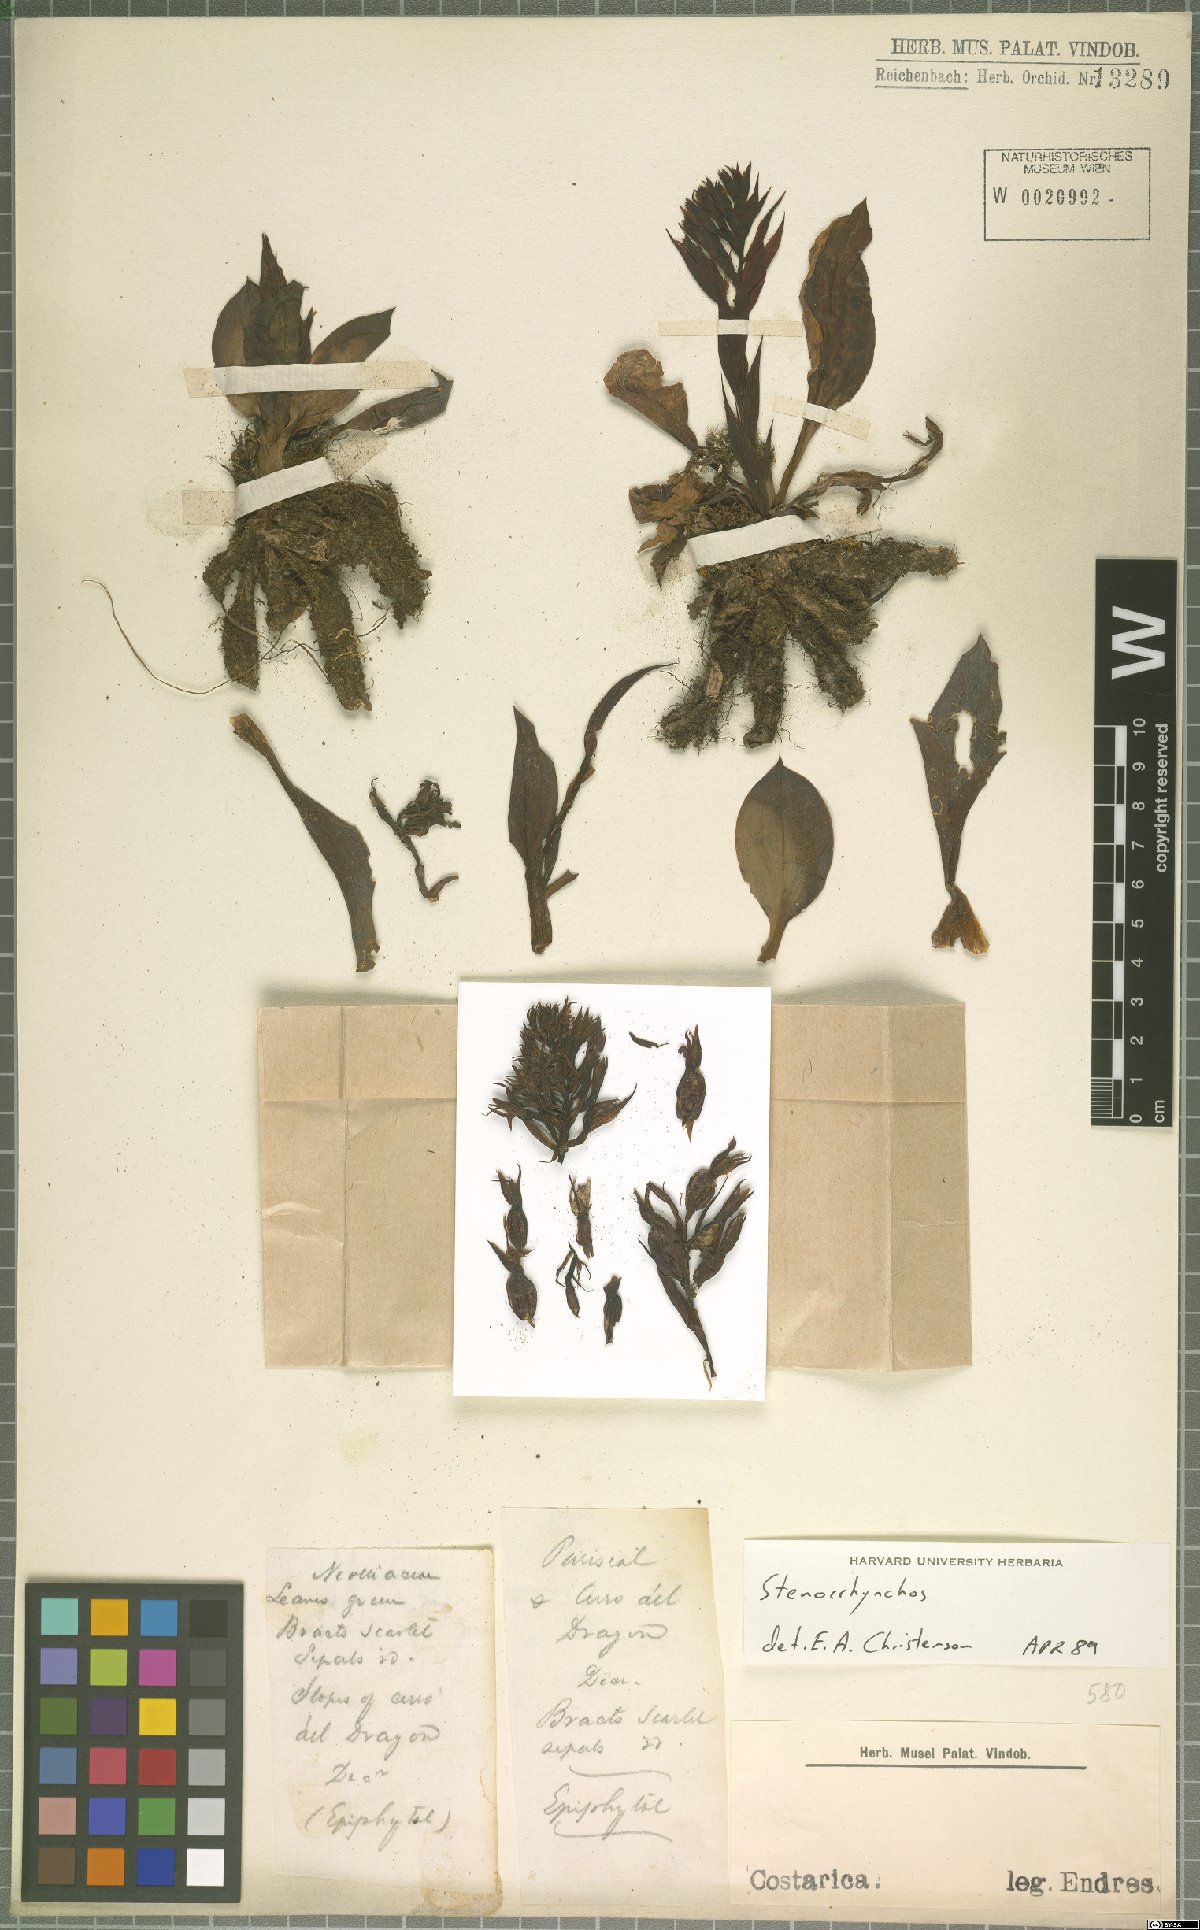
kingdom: Plantae
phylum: Tracheophyta
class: Liliopsida
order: Asparagales
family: Orchidaceae
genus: Stenorrhynchos
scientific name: Stenorrhynchos
